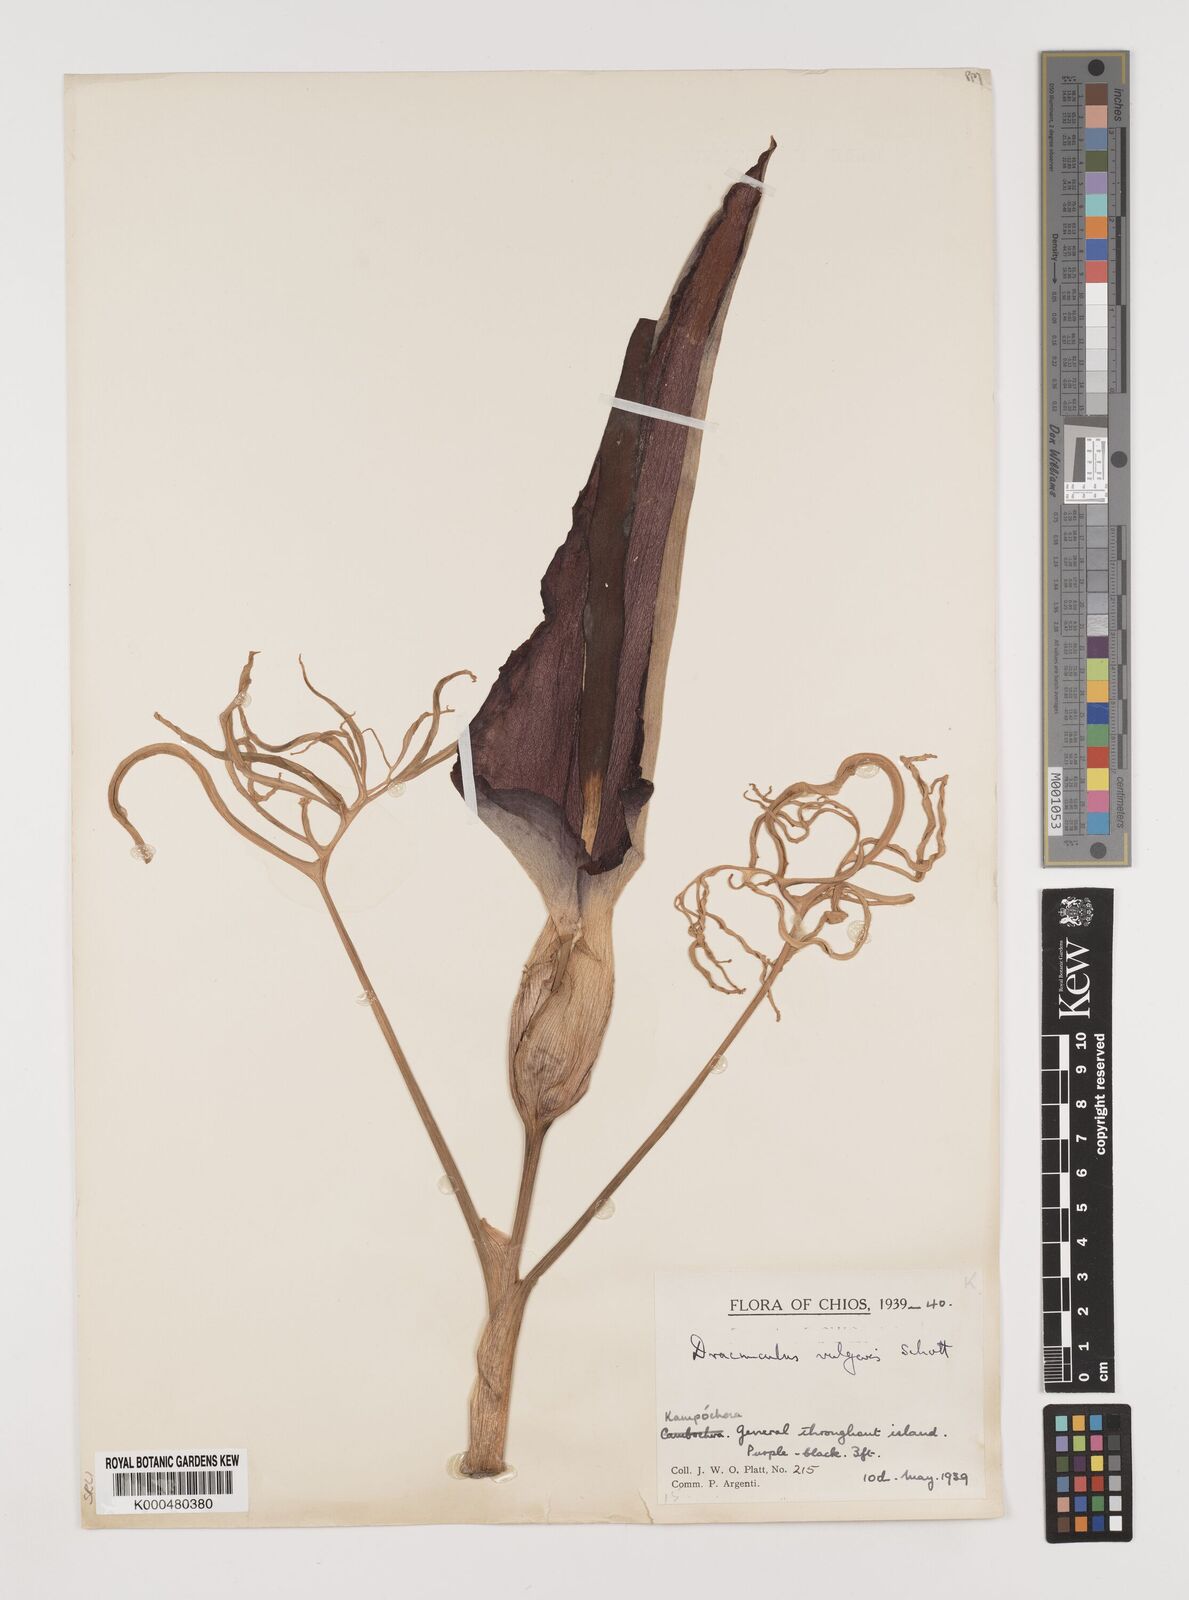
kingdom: Plantae
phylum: Tracheophyta
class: Liliopsida
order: Alismatales
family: Araceae
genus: Dracunculus
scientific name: Dracunculus vulgaris
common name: Dragon arum
